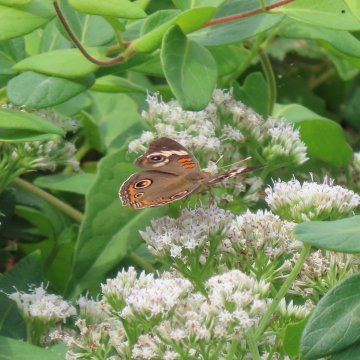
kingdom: Animalia
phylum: Arthropoda
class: Insecta
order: Lepidoptera
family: Nymphalidae
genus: Junonia
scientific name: Junonia coenia
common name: Common Buckeye
